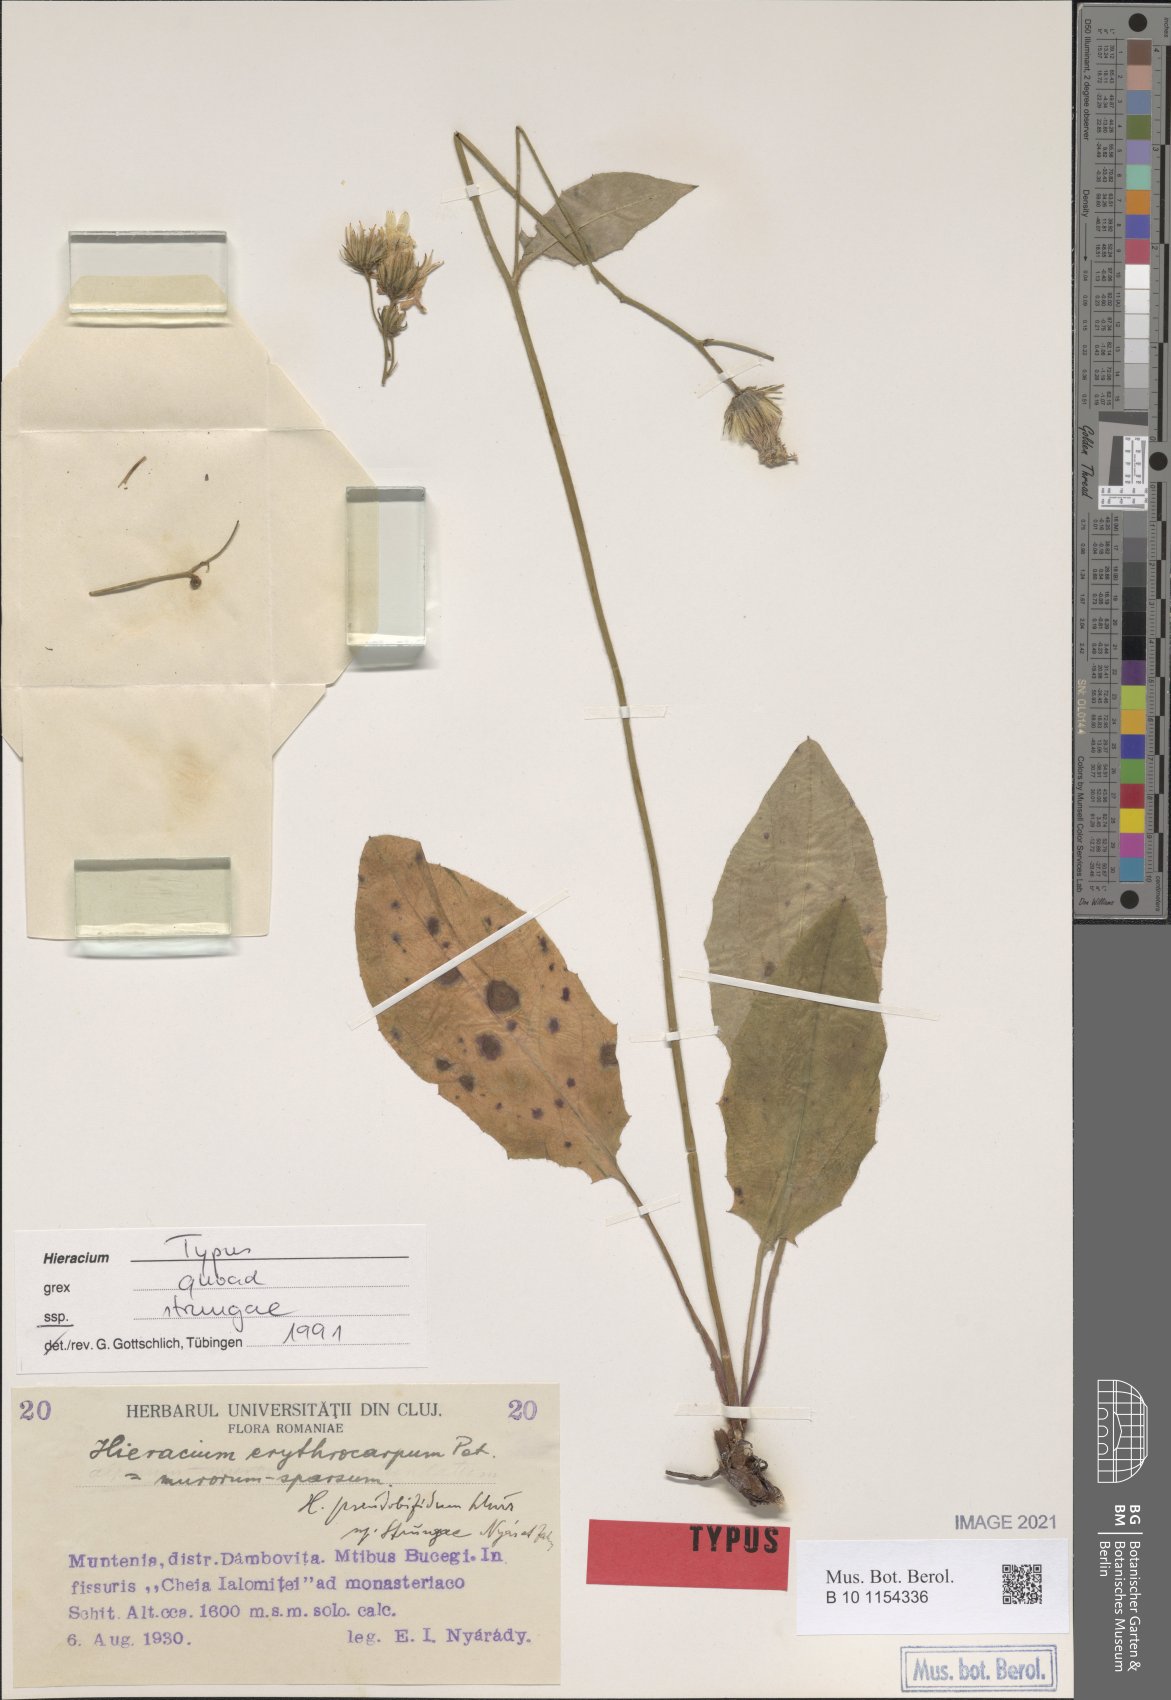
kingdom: Plantae
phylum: Tracheophyta
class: Magnoliopsida
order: Asterales
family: Asteraceae
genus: Hieracium
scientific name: Hieracium pseudobifidum
